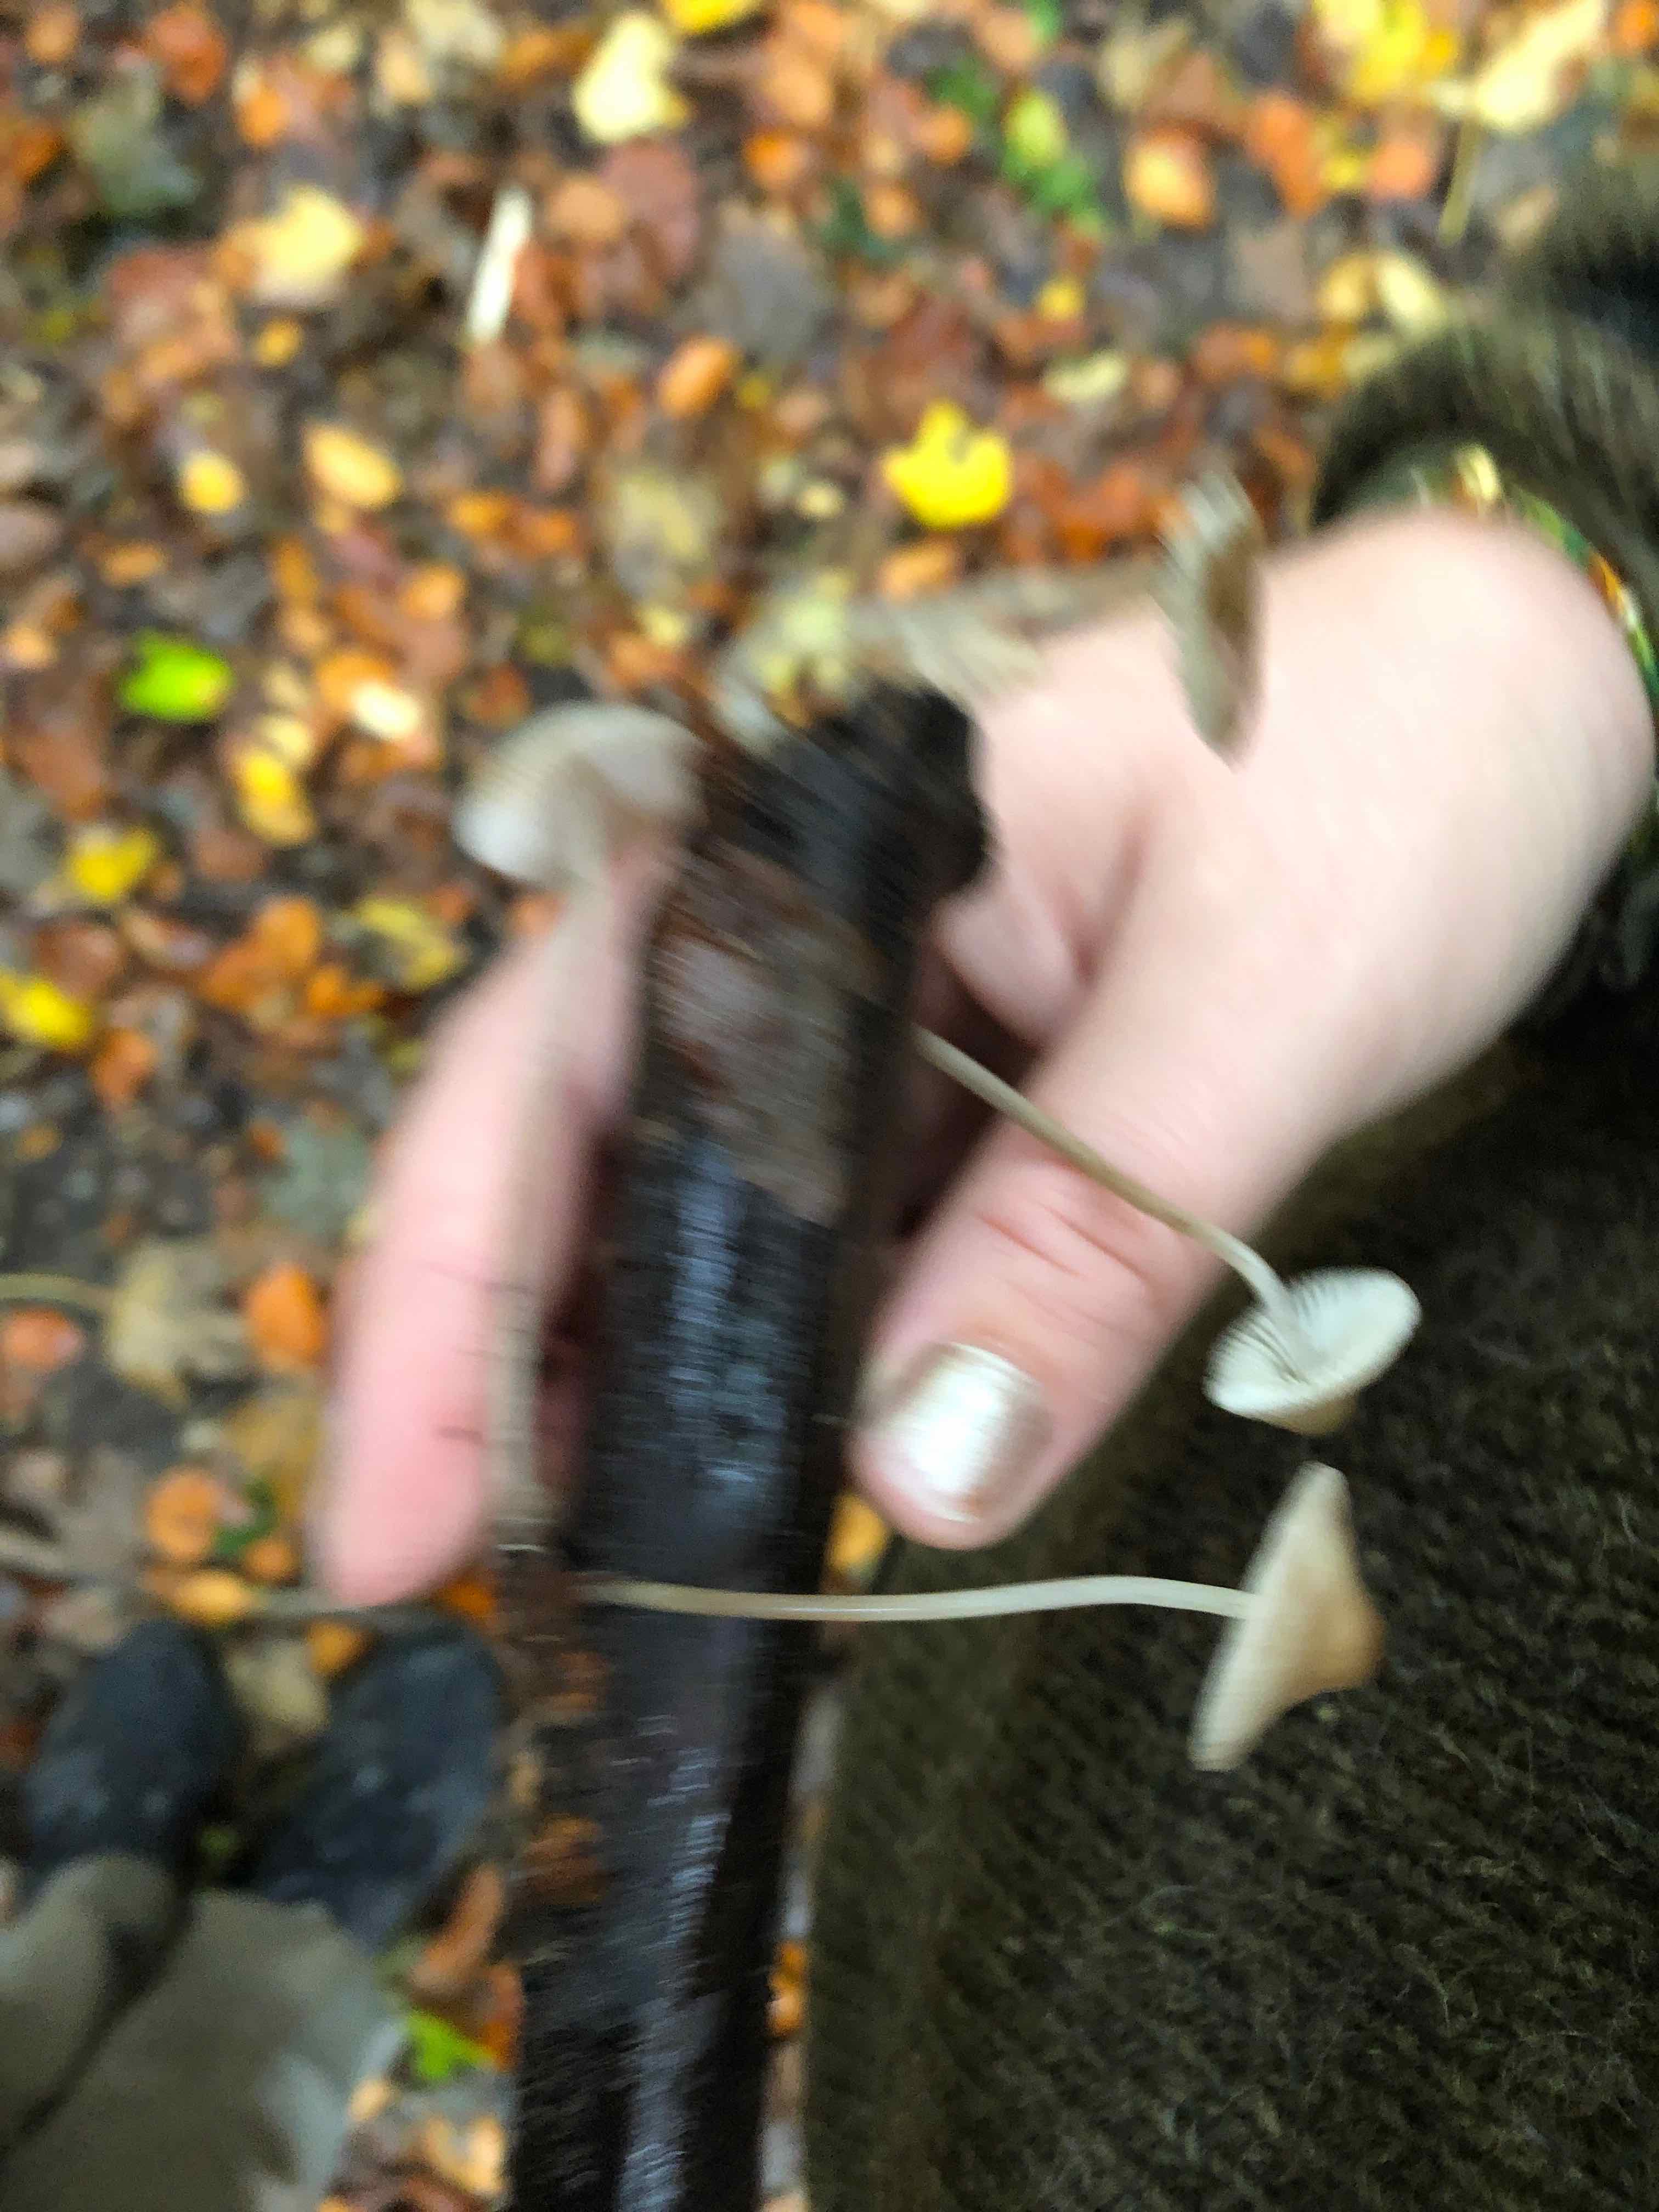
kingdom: Fungi
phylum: Basidiomycota
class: Agaricomycetes
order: Agaricales
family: Mycenaceae
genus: Mycena
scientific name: Mycena
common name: huesvamp
